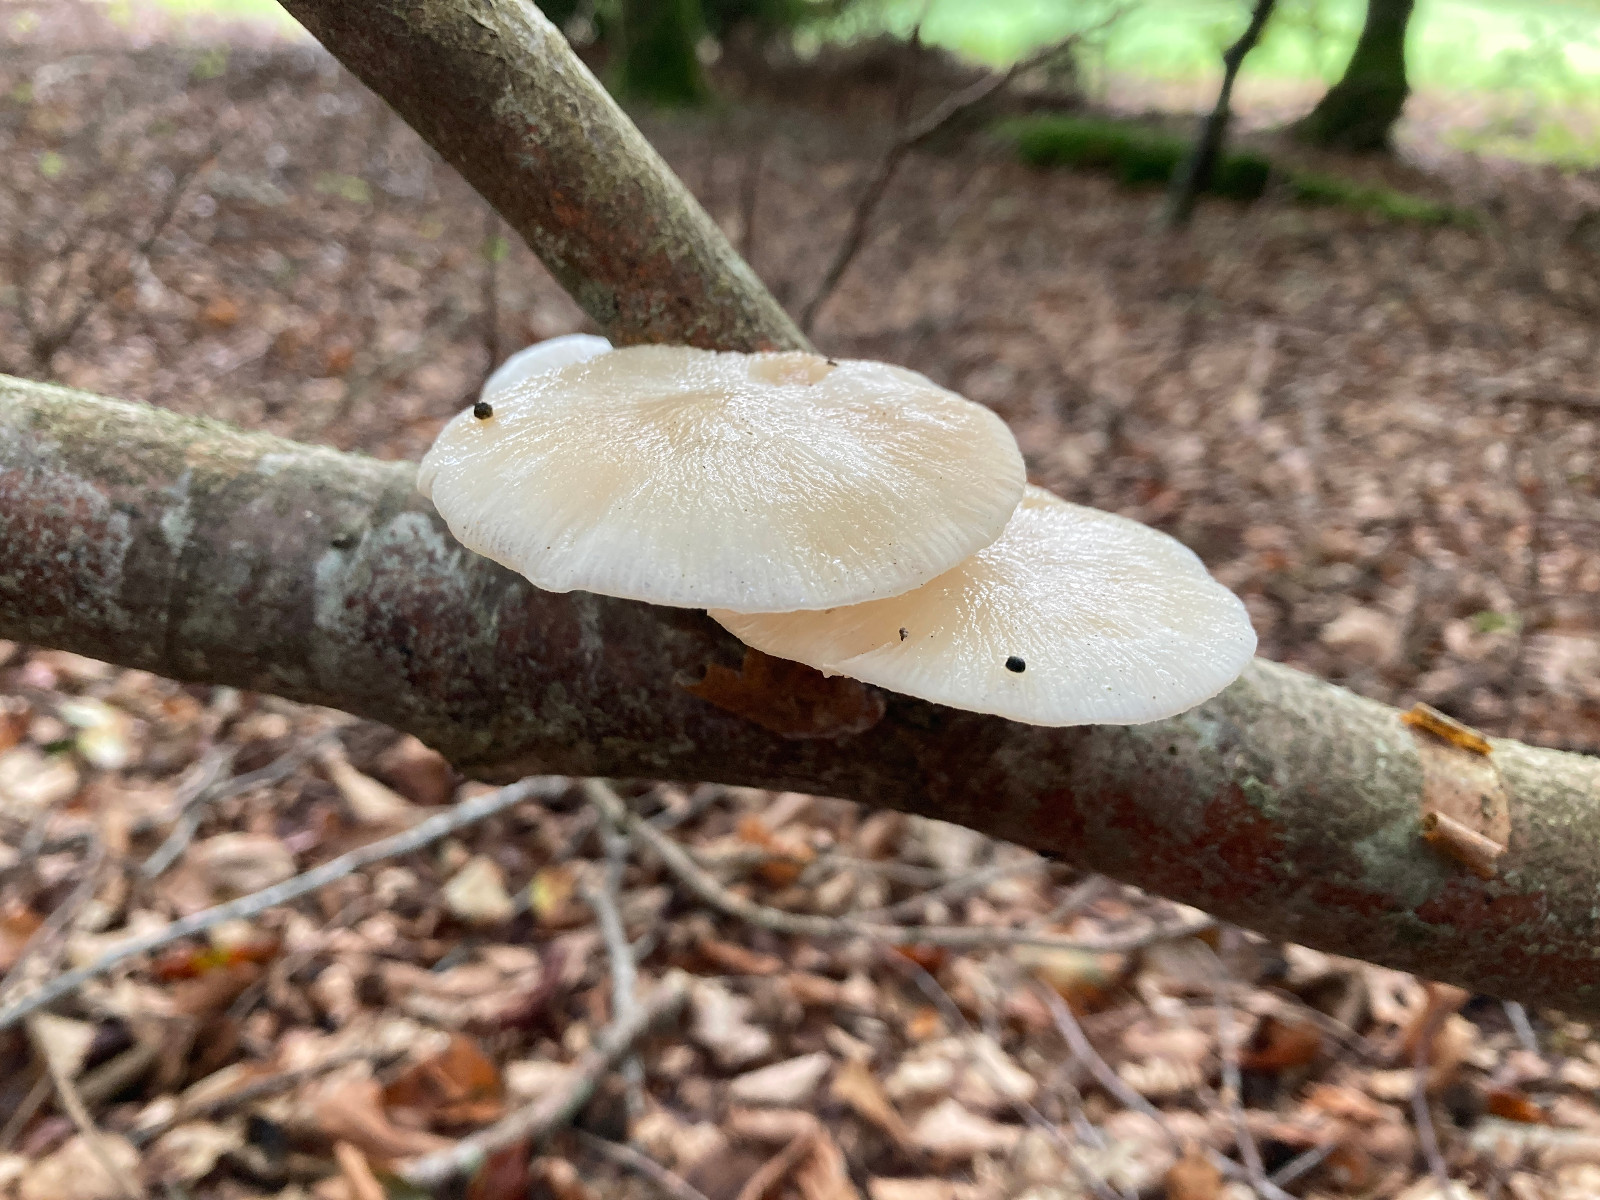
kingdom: Fungi
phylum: Basidiomycota
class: Agaricomycetes
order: Agaricales
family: Physalacriaceae
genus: Mucidula
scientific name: Mucidula mucida
